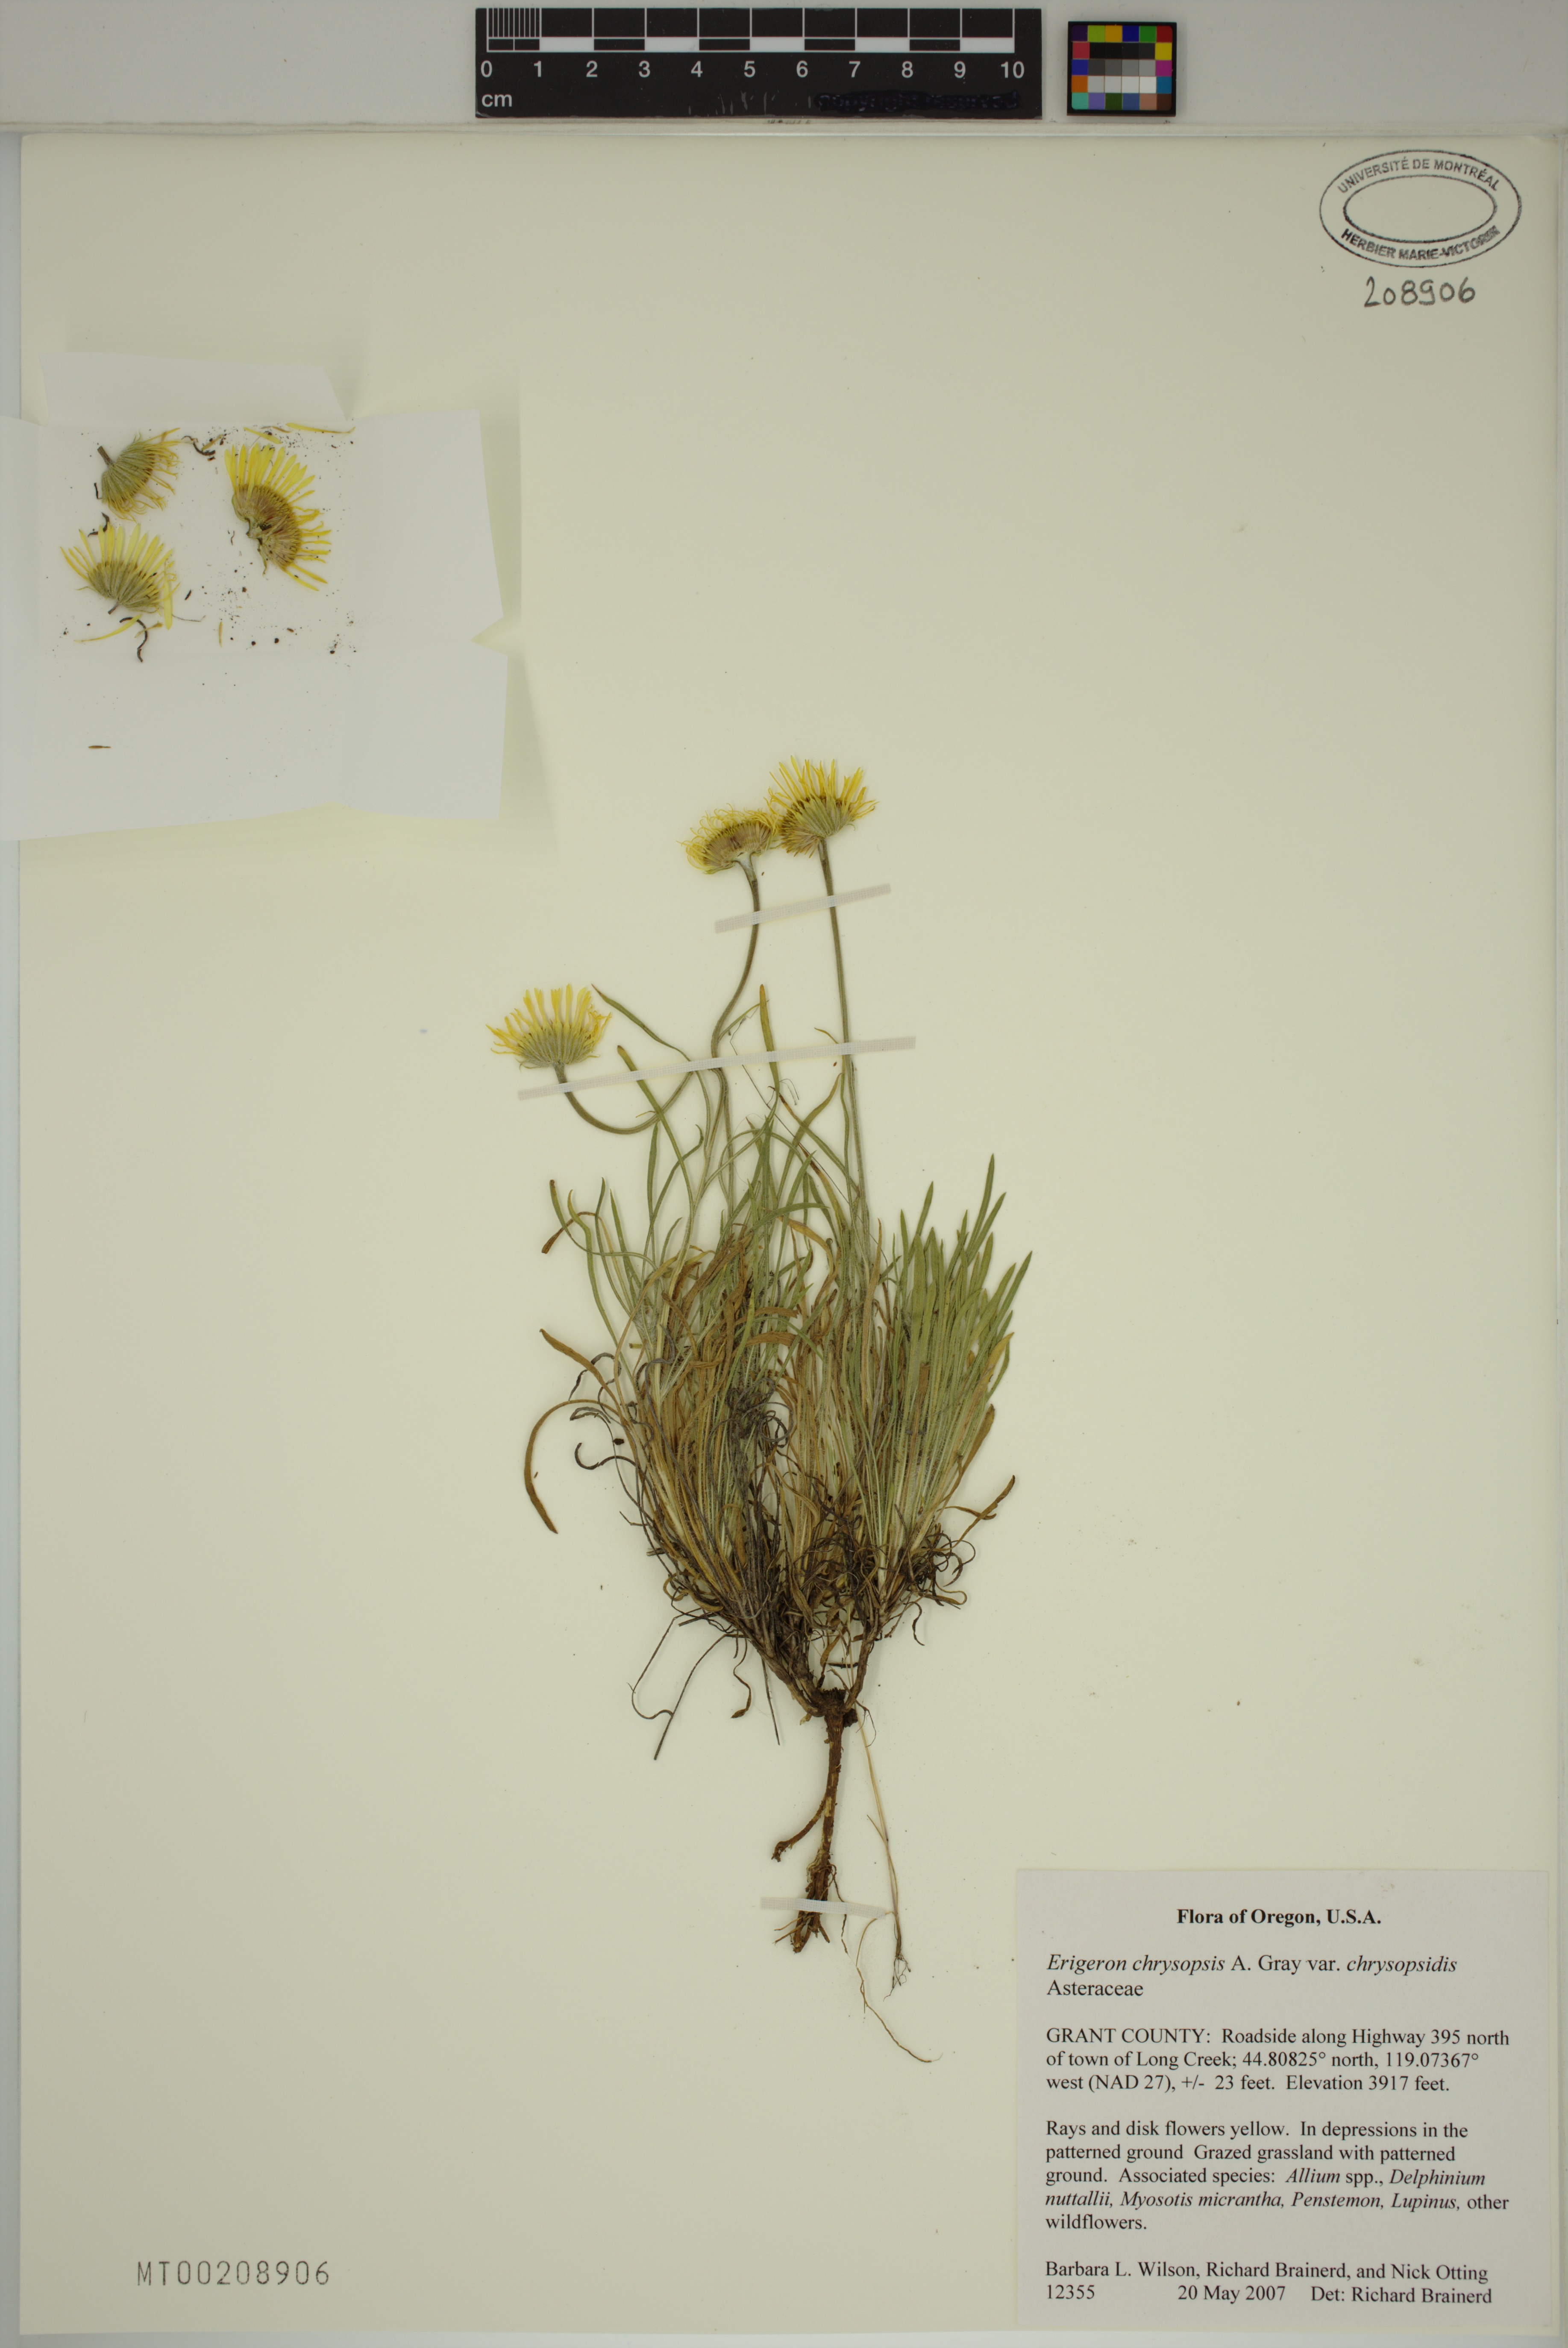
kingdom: Plantae
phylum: Tracheophyta
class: Magnoliopsida
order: Asterales
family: Asteraceae
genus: Erigeron
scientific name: Erigeron chrysopsidis
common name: Dwarf yellow fleabane
